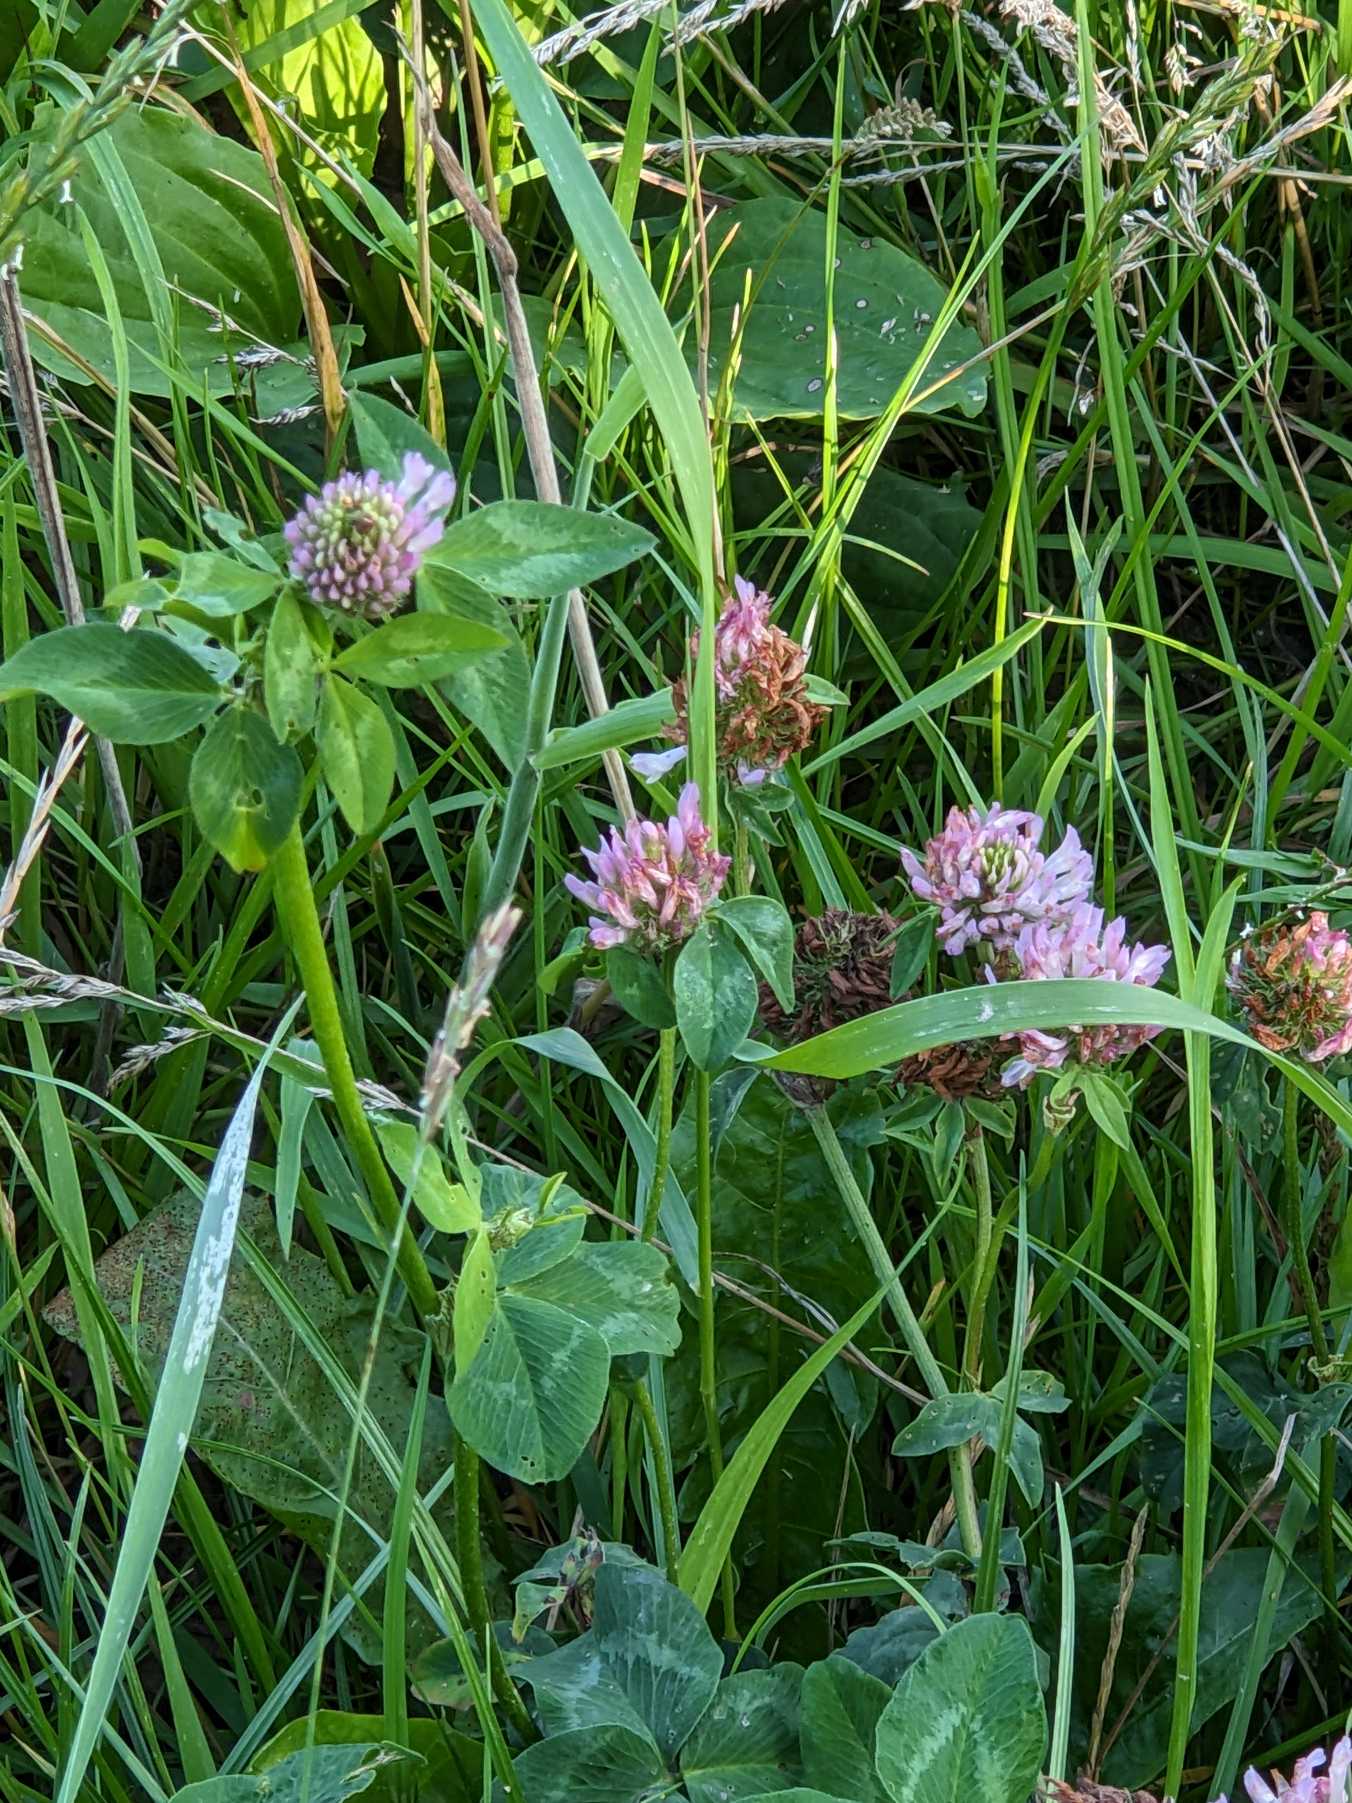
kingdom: Plantae
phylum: Tracheophyta
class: Magnoliopsida
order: Fabales
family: Fabaceae
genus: Trifolium
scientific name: Trifolium pratense
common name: Rød-kløver
